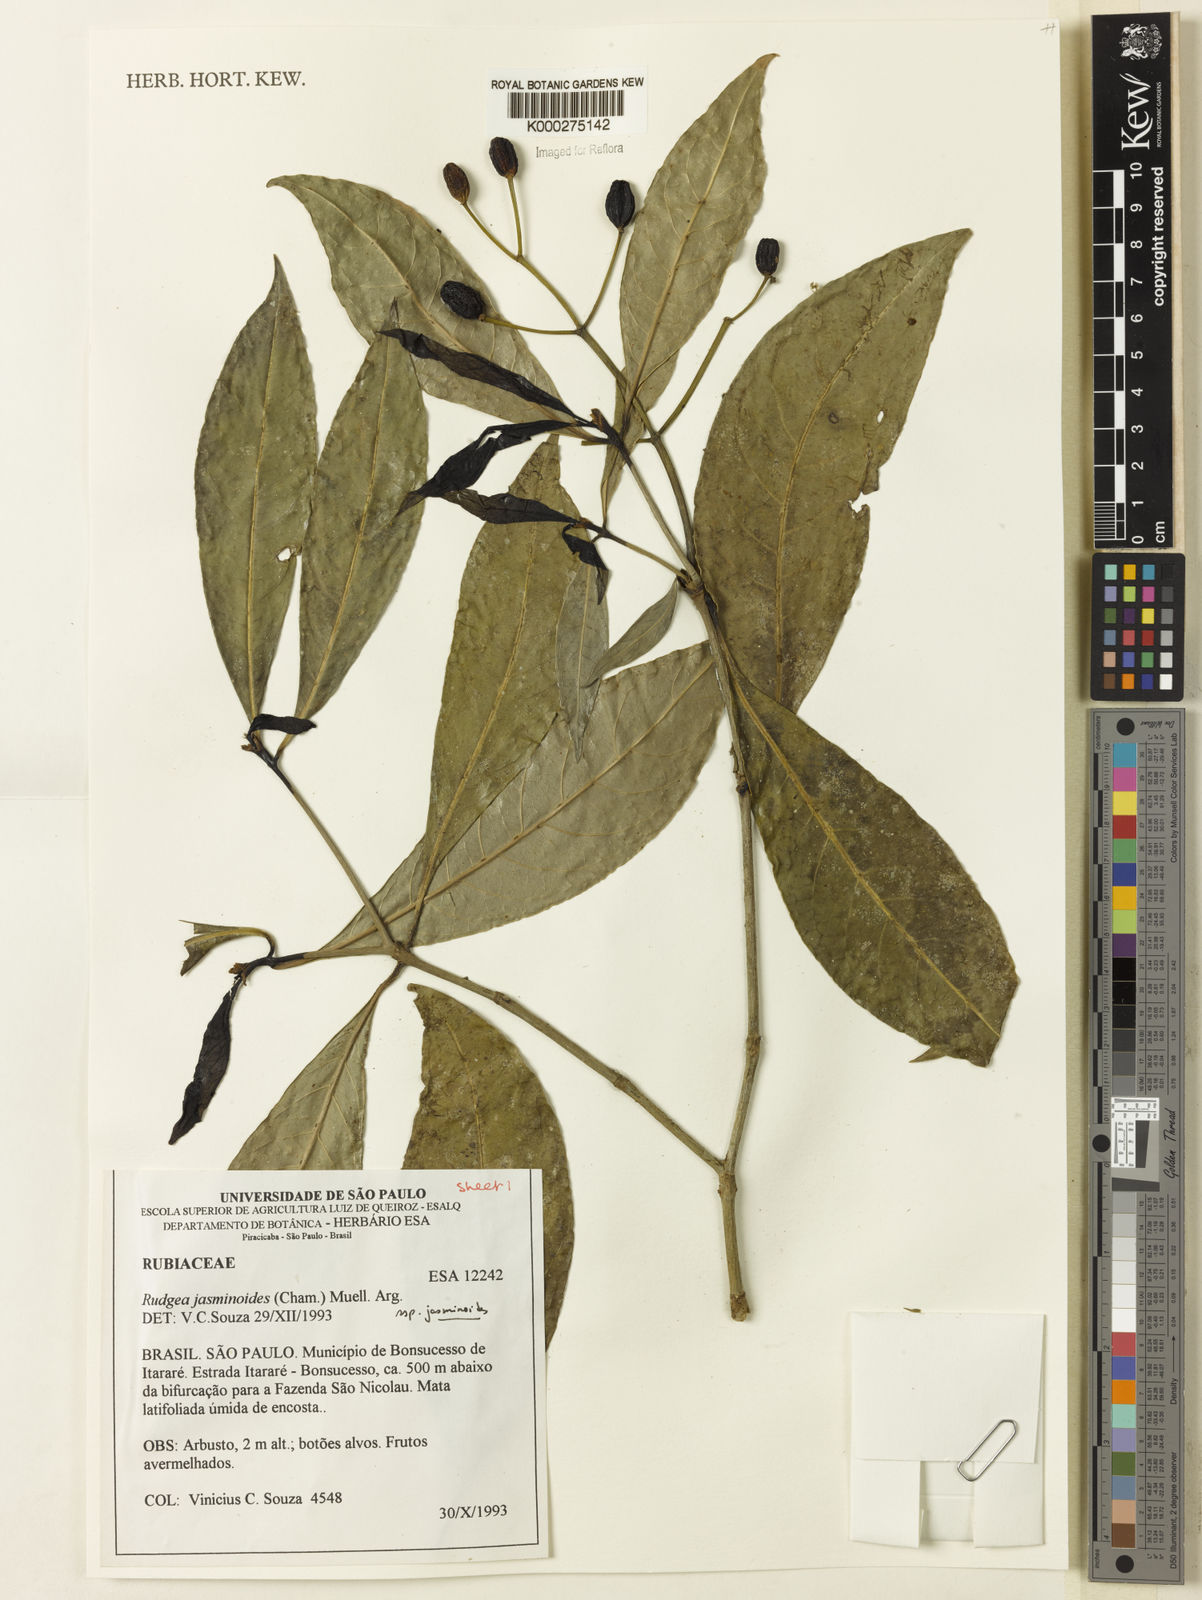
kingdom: Plantae
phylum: Tracheophyta
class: Magnoliopsida
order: Gentianales
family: Rubiaceae
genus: Rudgea
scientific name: Rudgea jasminoides
